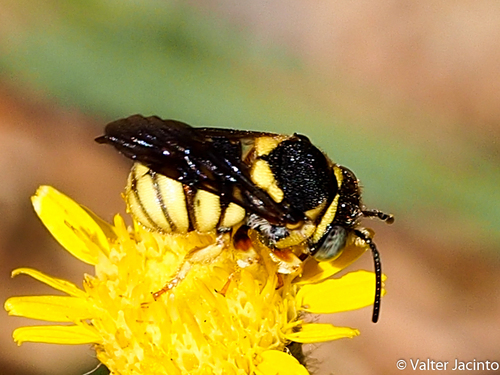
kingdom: Animalia
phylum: Arthropoda
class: Insecta
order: Hymenoptera
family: Megachilidae
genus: Stelis
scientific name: Stelis signata
